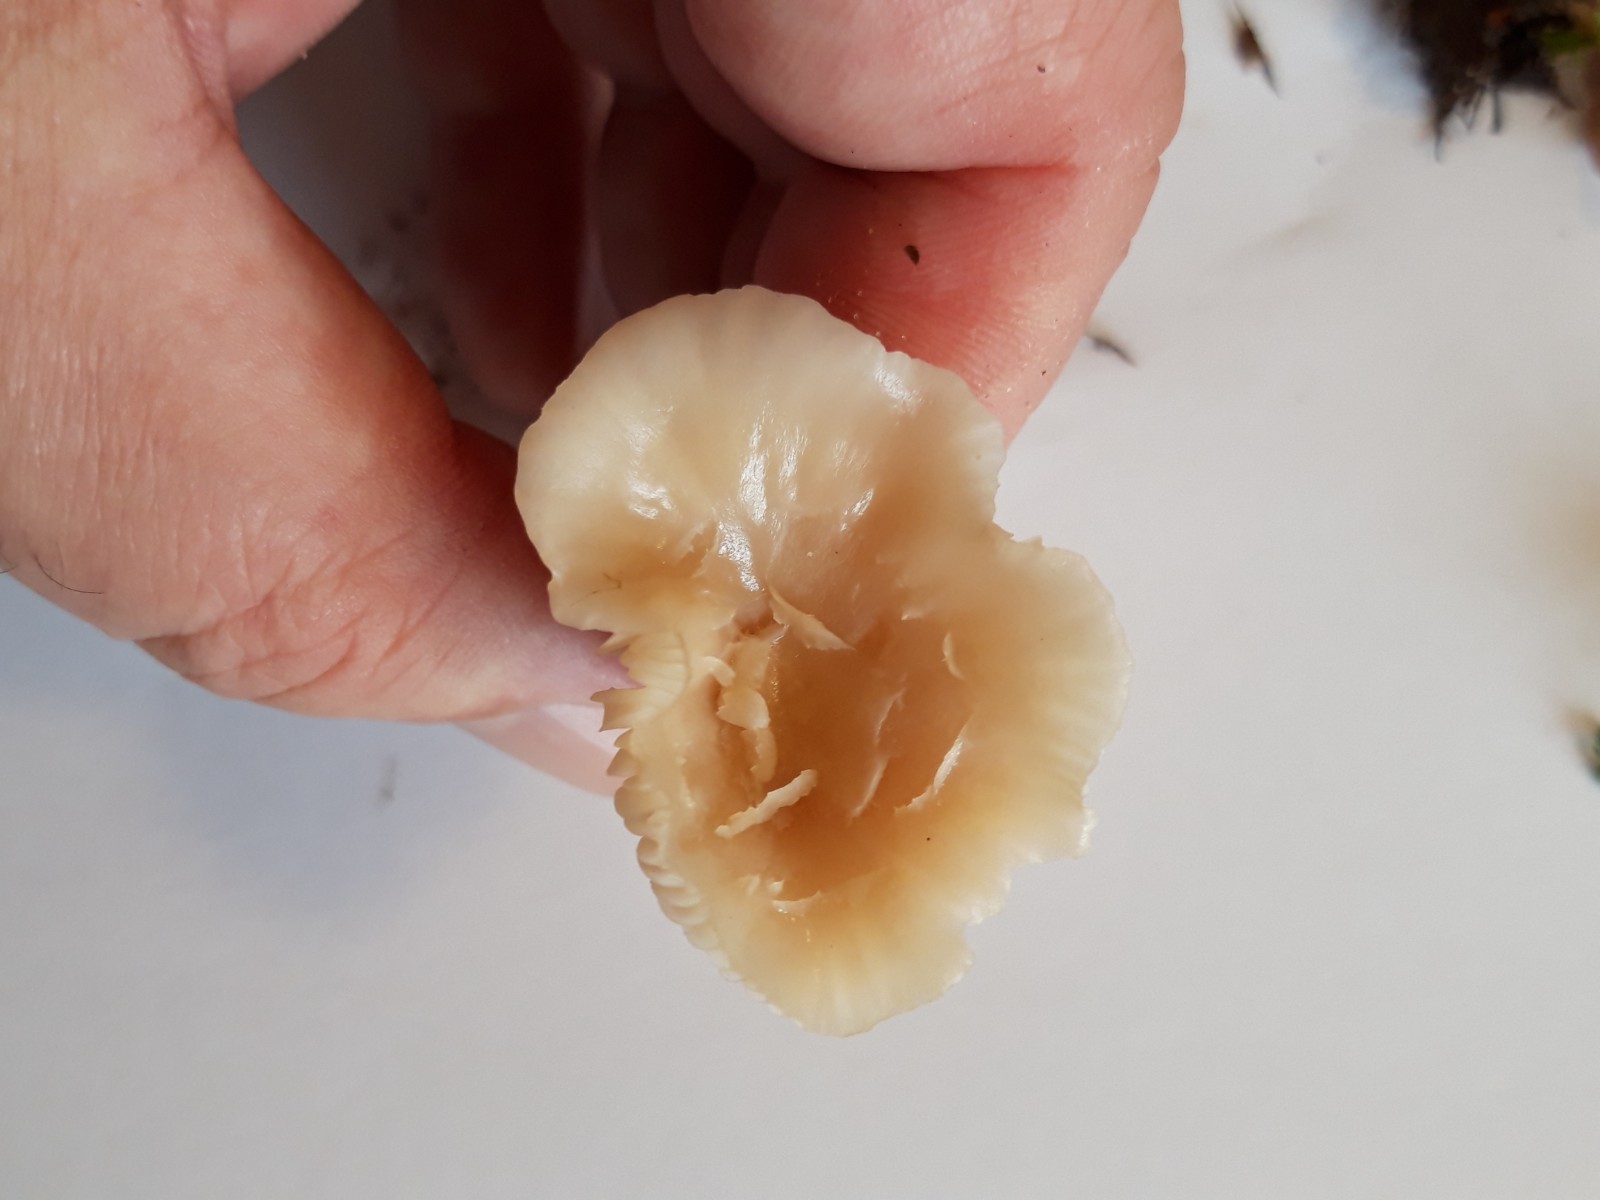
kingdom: Fungi
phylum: Basidiomycota
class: Agaricomycetes
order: Agaricales
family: Hygrophoraceae
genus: Cuphophyllus
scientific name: Cuphophyllus
